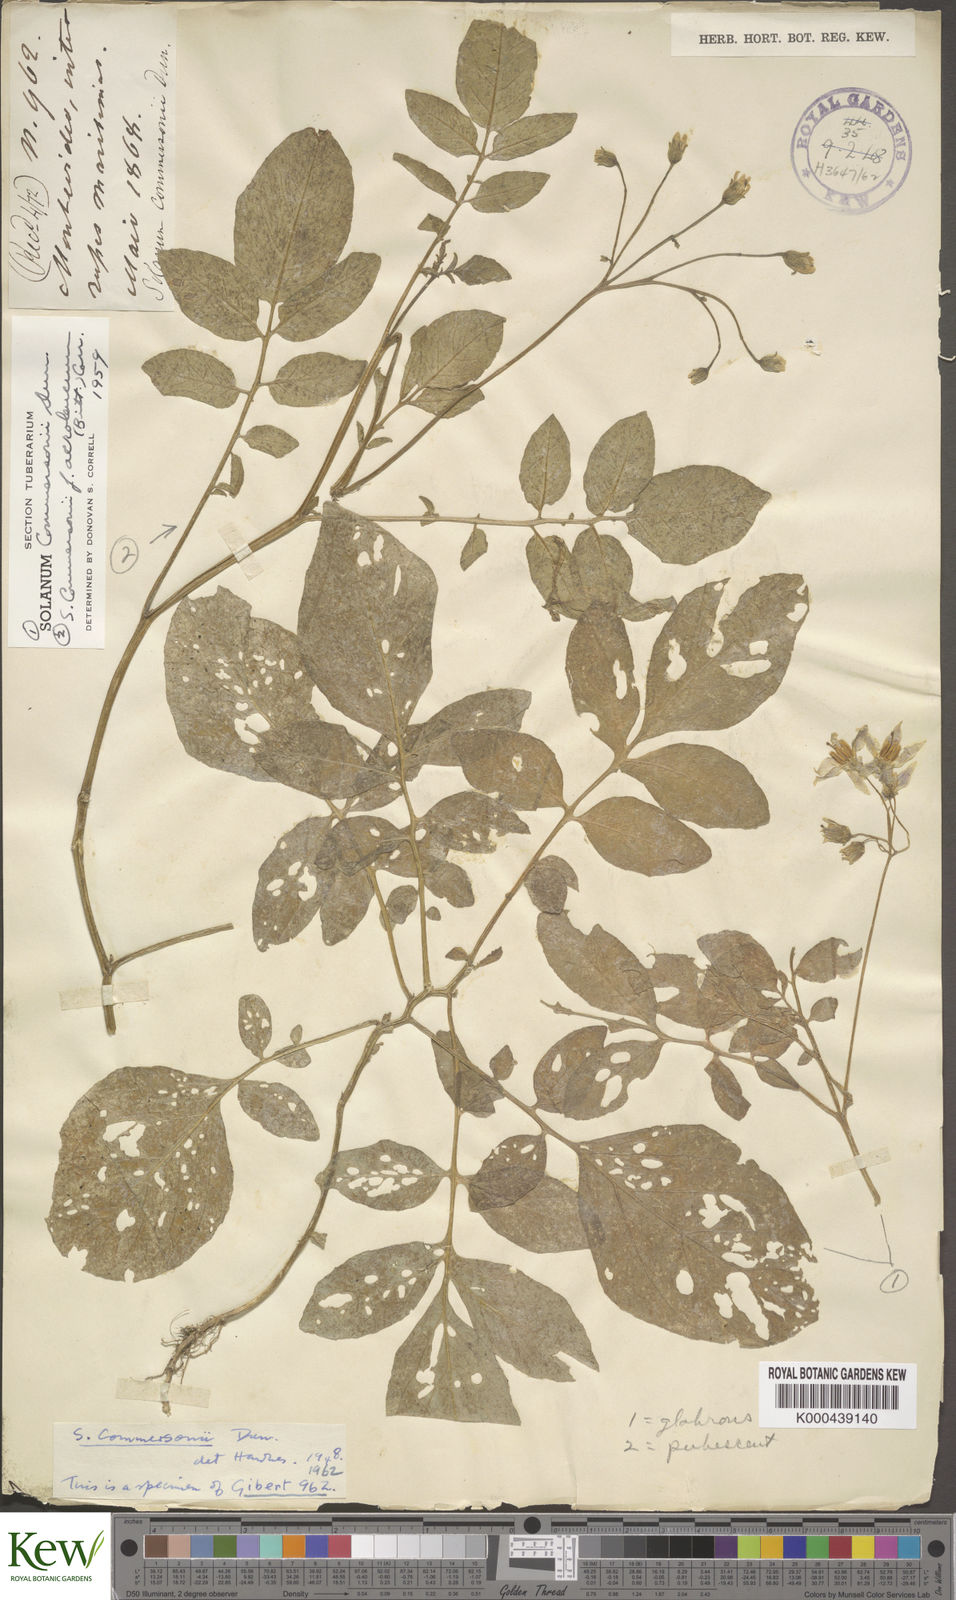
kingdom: Plantae
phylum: Tracheophyta
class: Magnoliopsida
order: Solanales
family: Solanaceae
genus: Solanum
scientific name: Solanum commersonii
